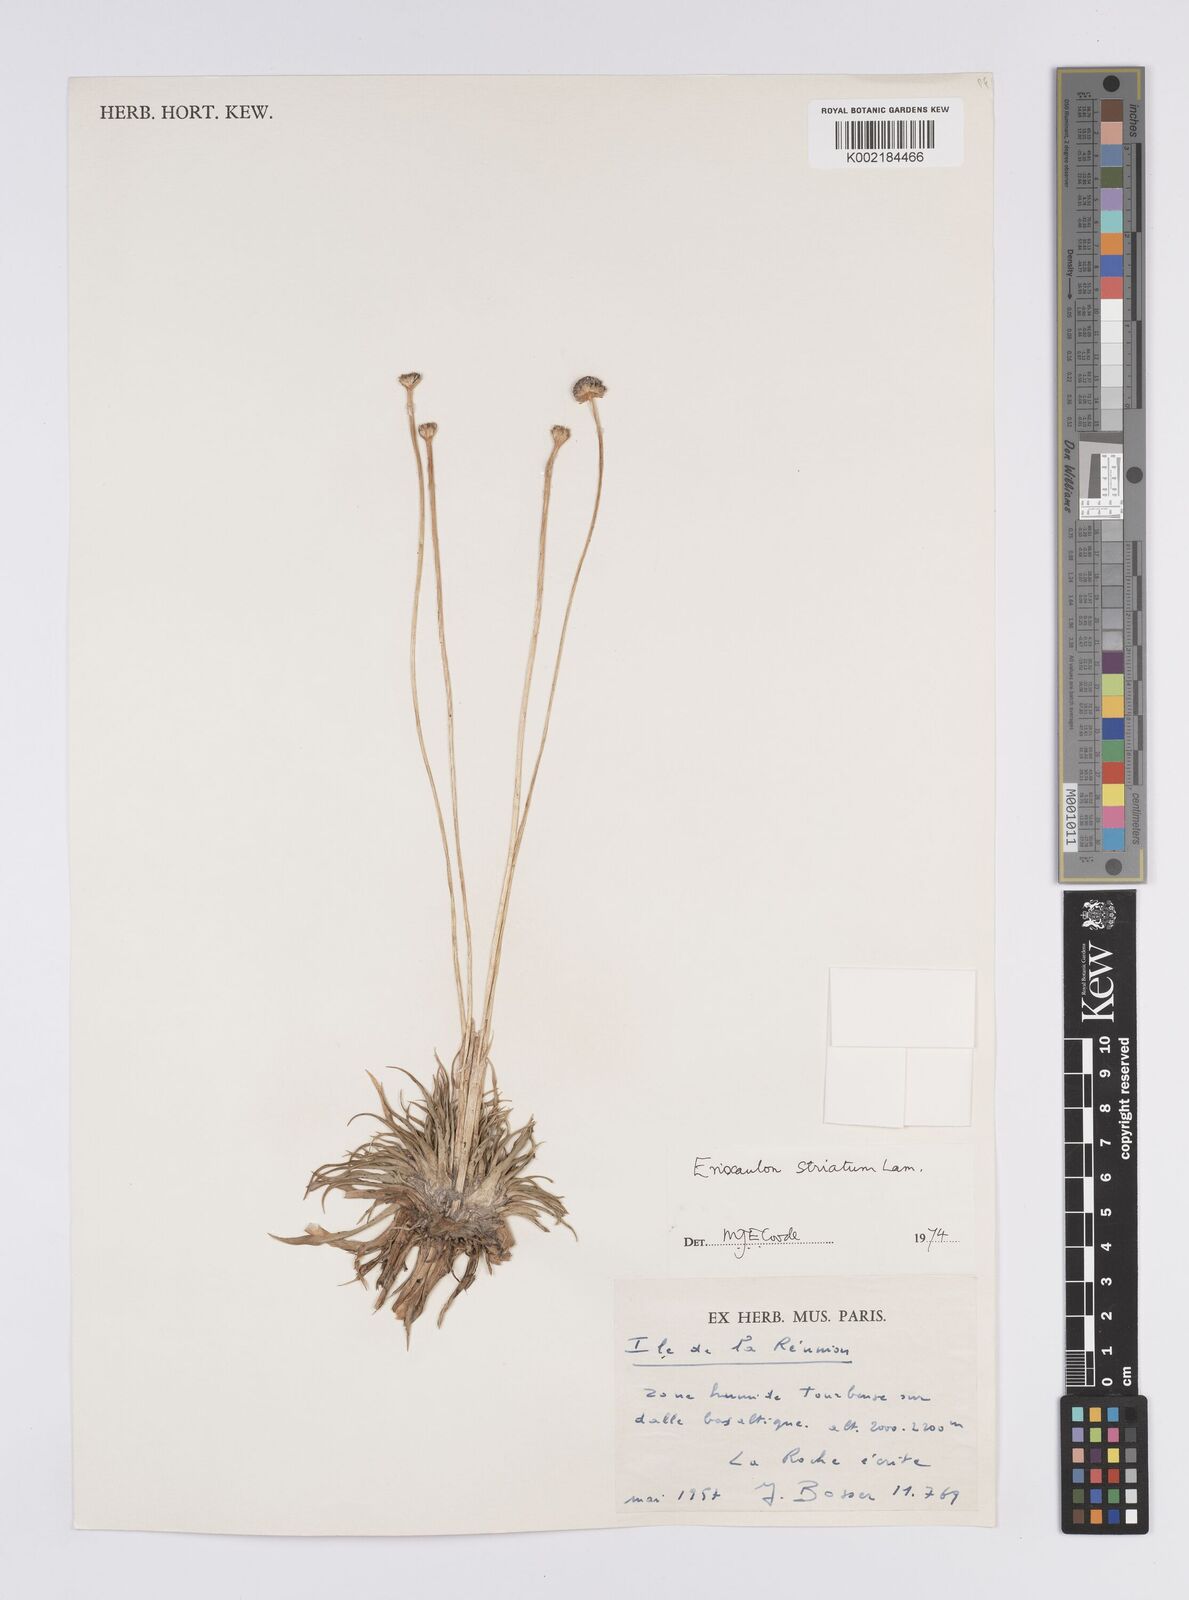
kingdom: Plantae
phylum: Tracheophyta
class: Liliopsida
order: Poales
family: Eriocaulaceae
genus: Eriocaulon
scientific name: Eriocaulon striatum
